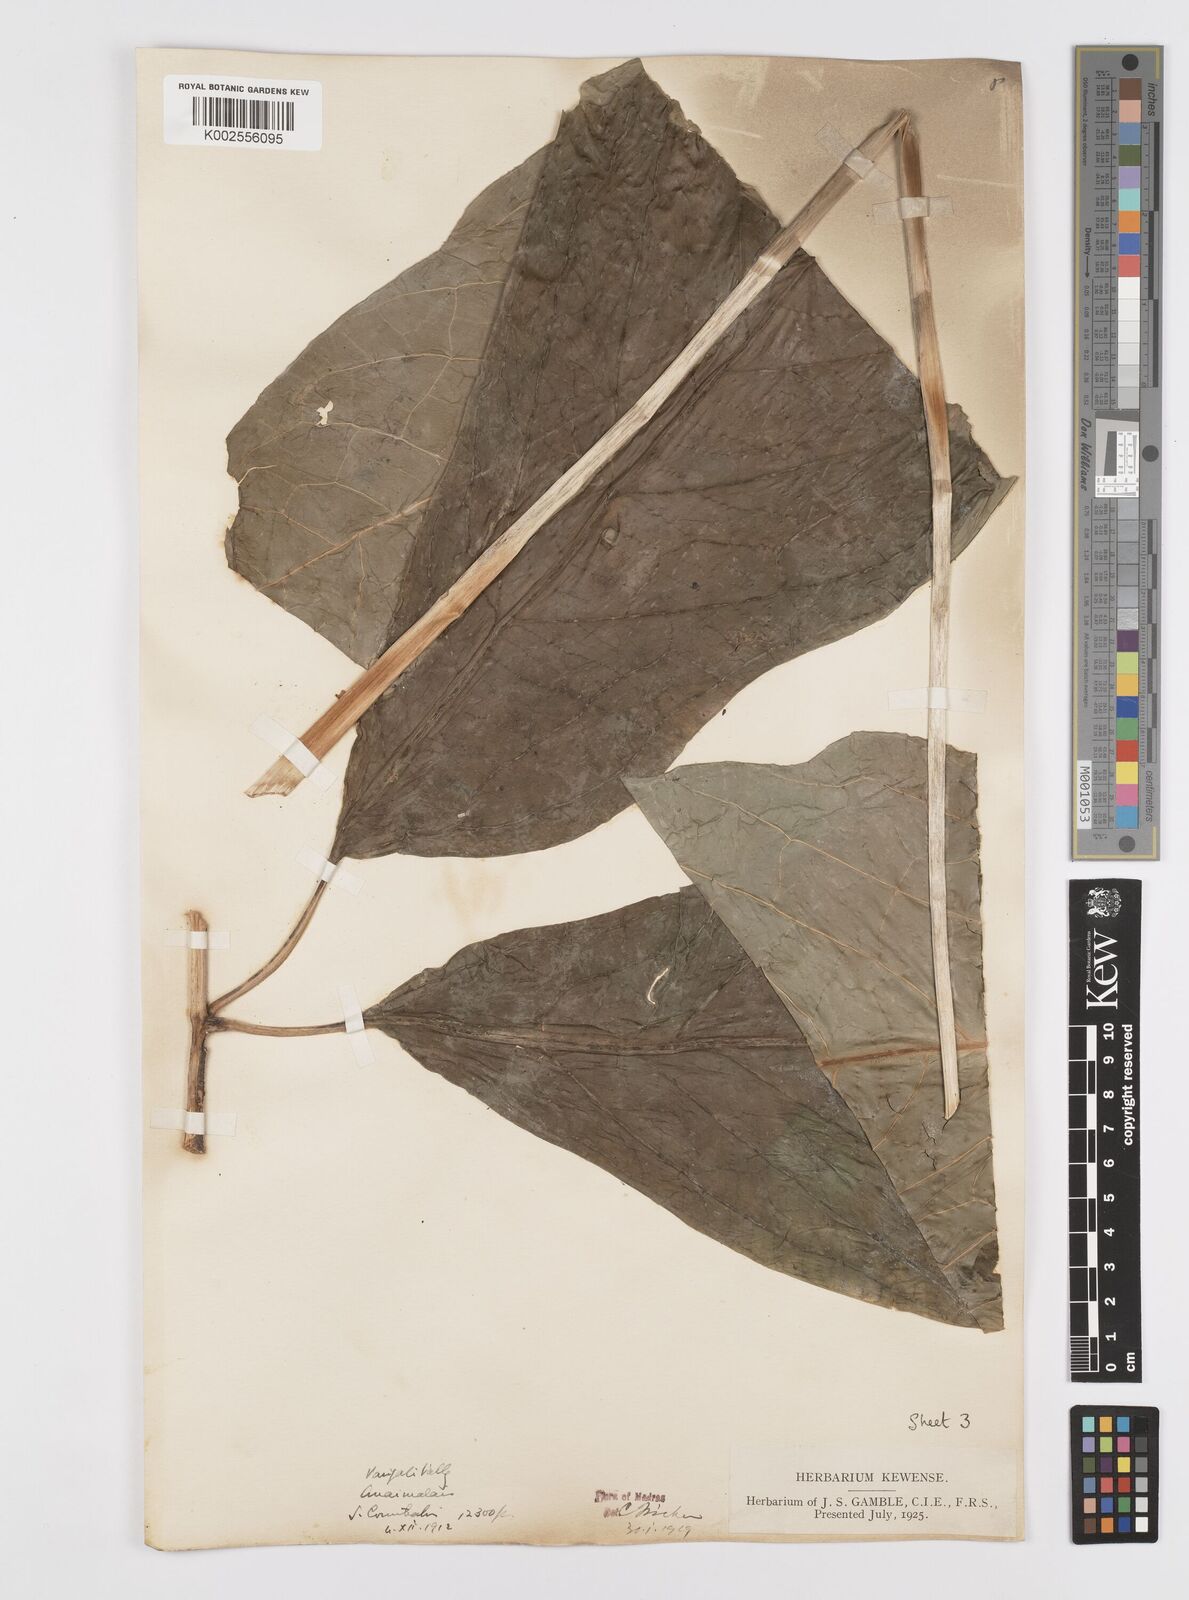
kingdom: Plantae
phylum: Tracheophyta
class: Liliopsida
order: Alismatales
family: Araceae
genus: Anaphyllum
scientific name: Anaphyllum wightii
